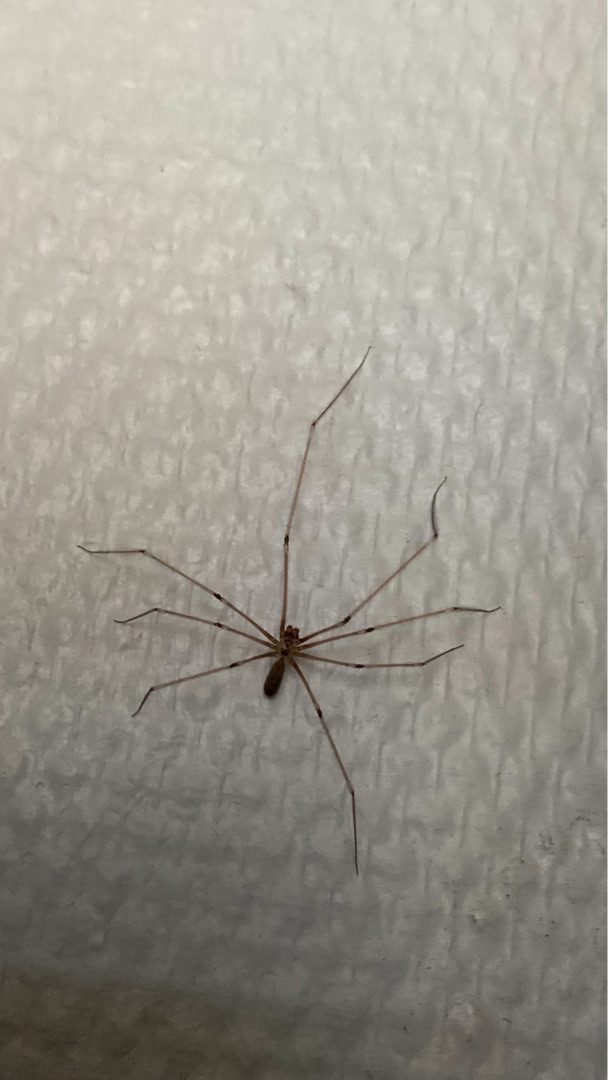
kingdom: Animalia
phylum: Arthropoda
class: Arachnida
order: Araneae
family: Pholcidae
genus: Pholcus
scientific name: Pholcus phalangioides
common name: Mejeredderkop
